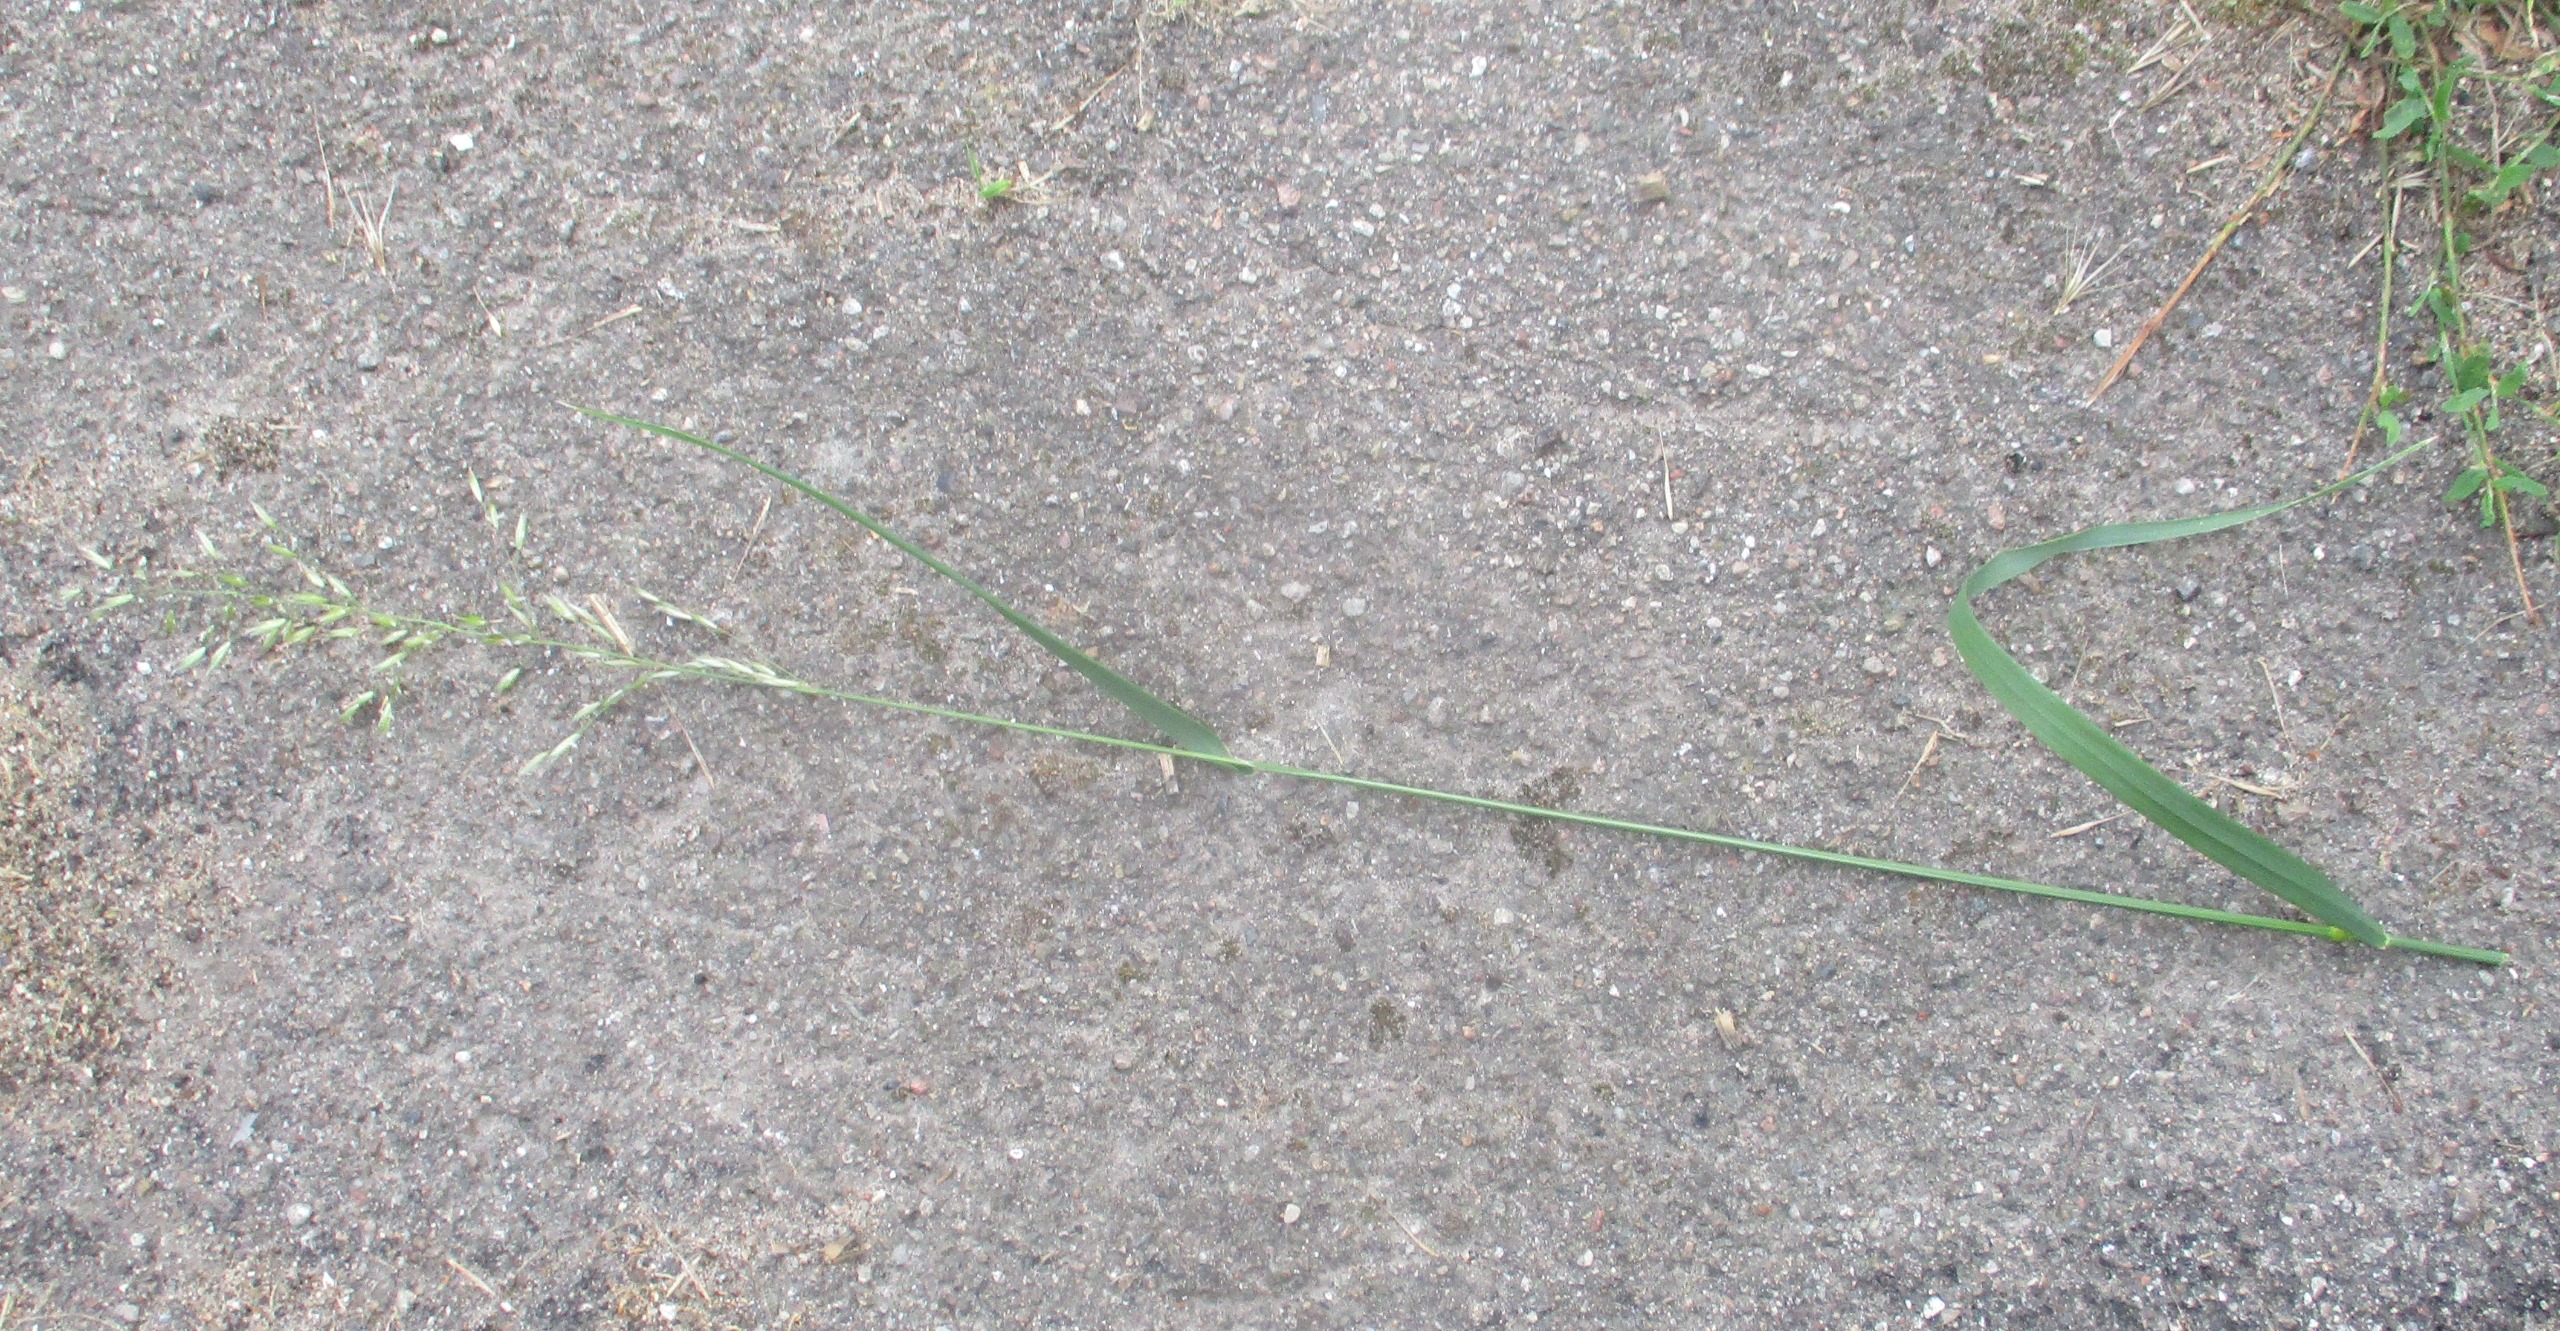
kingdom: Plantae
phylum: Tracheophyta
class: Liliopsida
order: Poales
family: Poaceae
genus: Arrhenatherum
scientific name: Arrhenatherum elatius
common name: Draphavre
